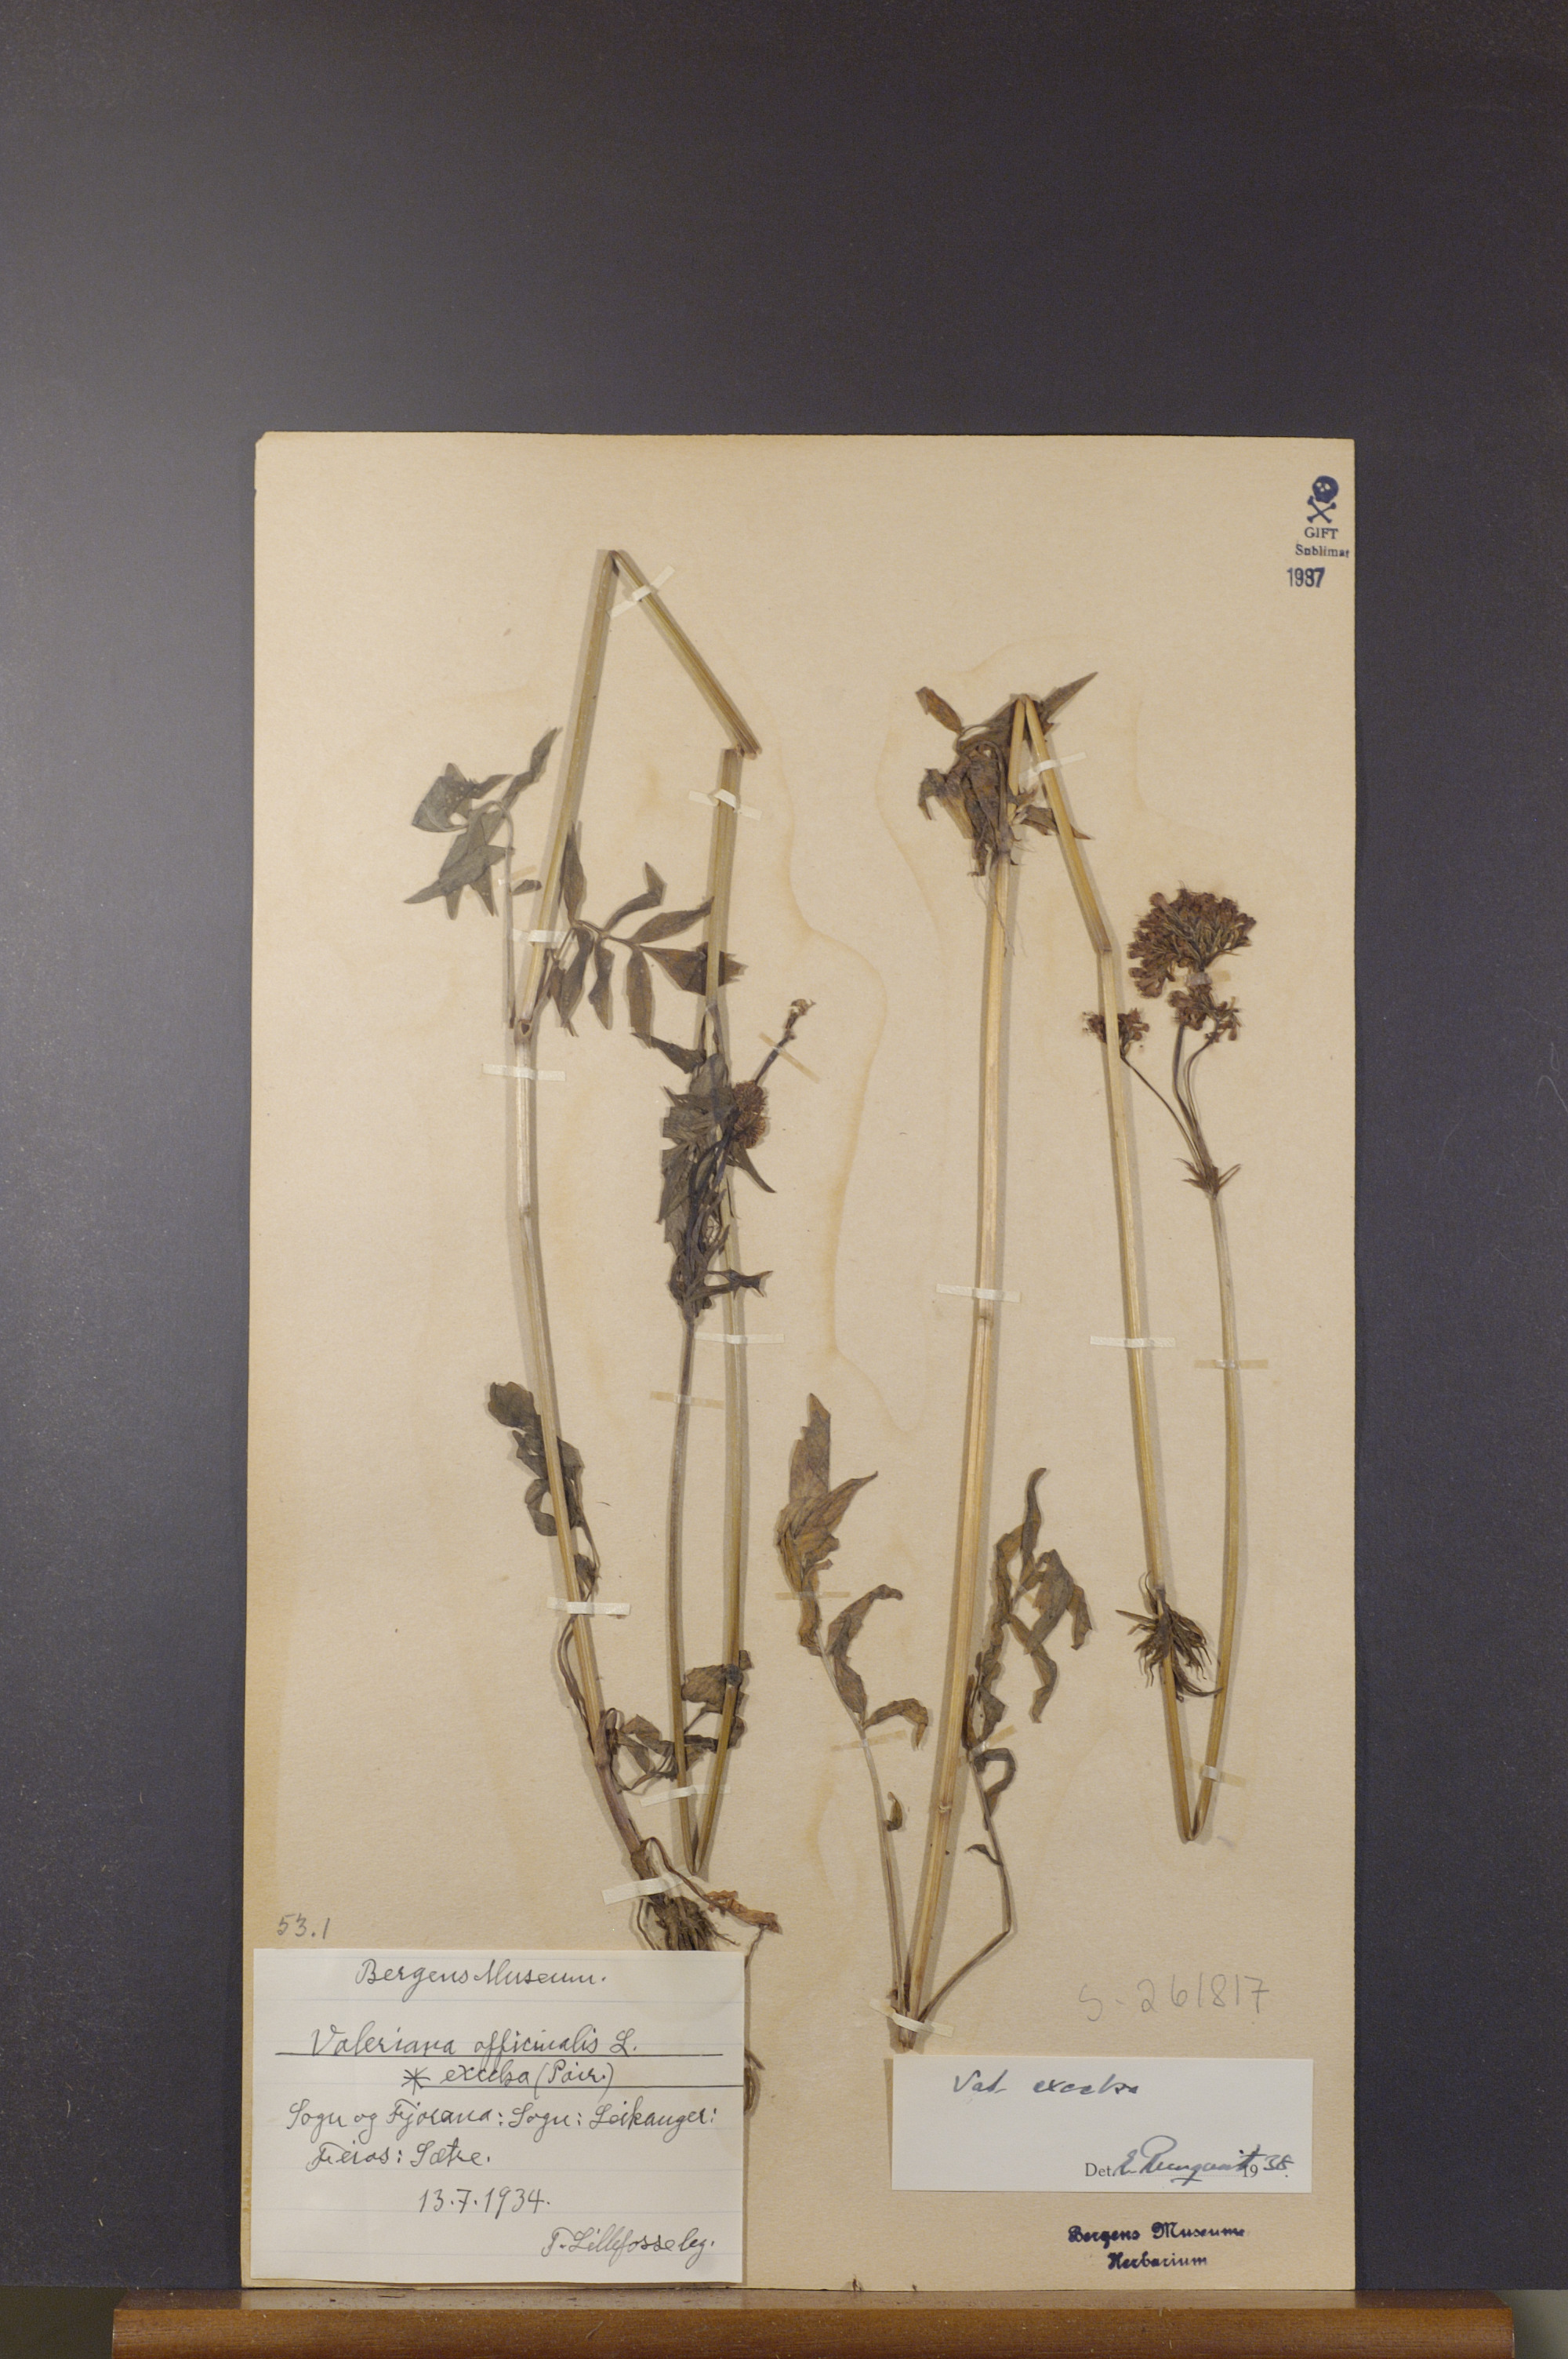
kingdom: Plantae
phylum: Tracheophyta
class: Magnoliopsida
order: Dipsacales
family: Caprifoliaceae
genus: Valeriana
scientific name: Valeriana sambucifolia
